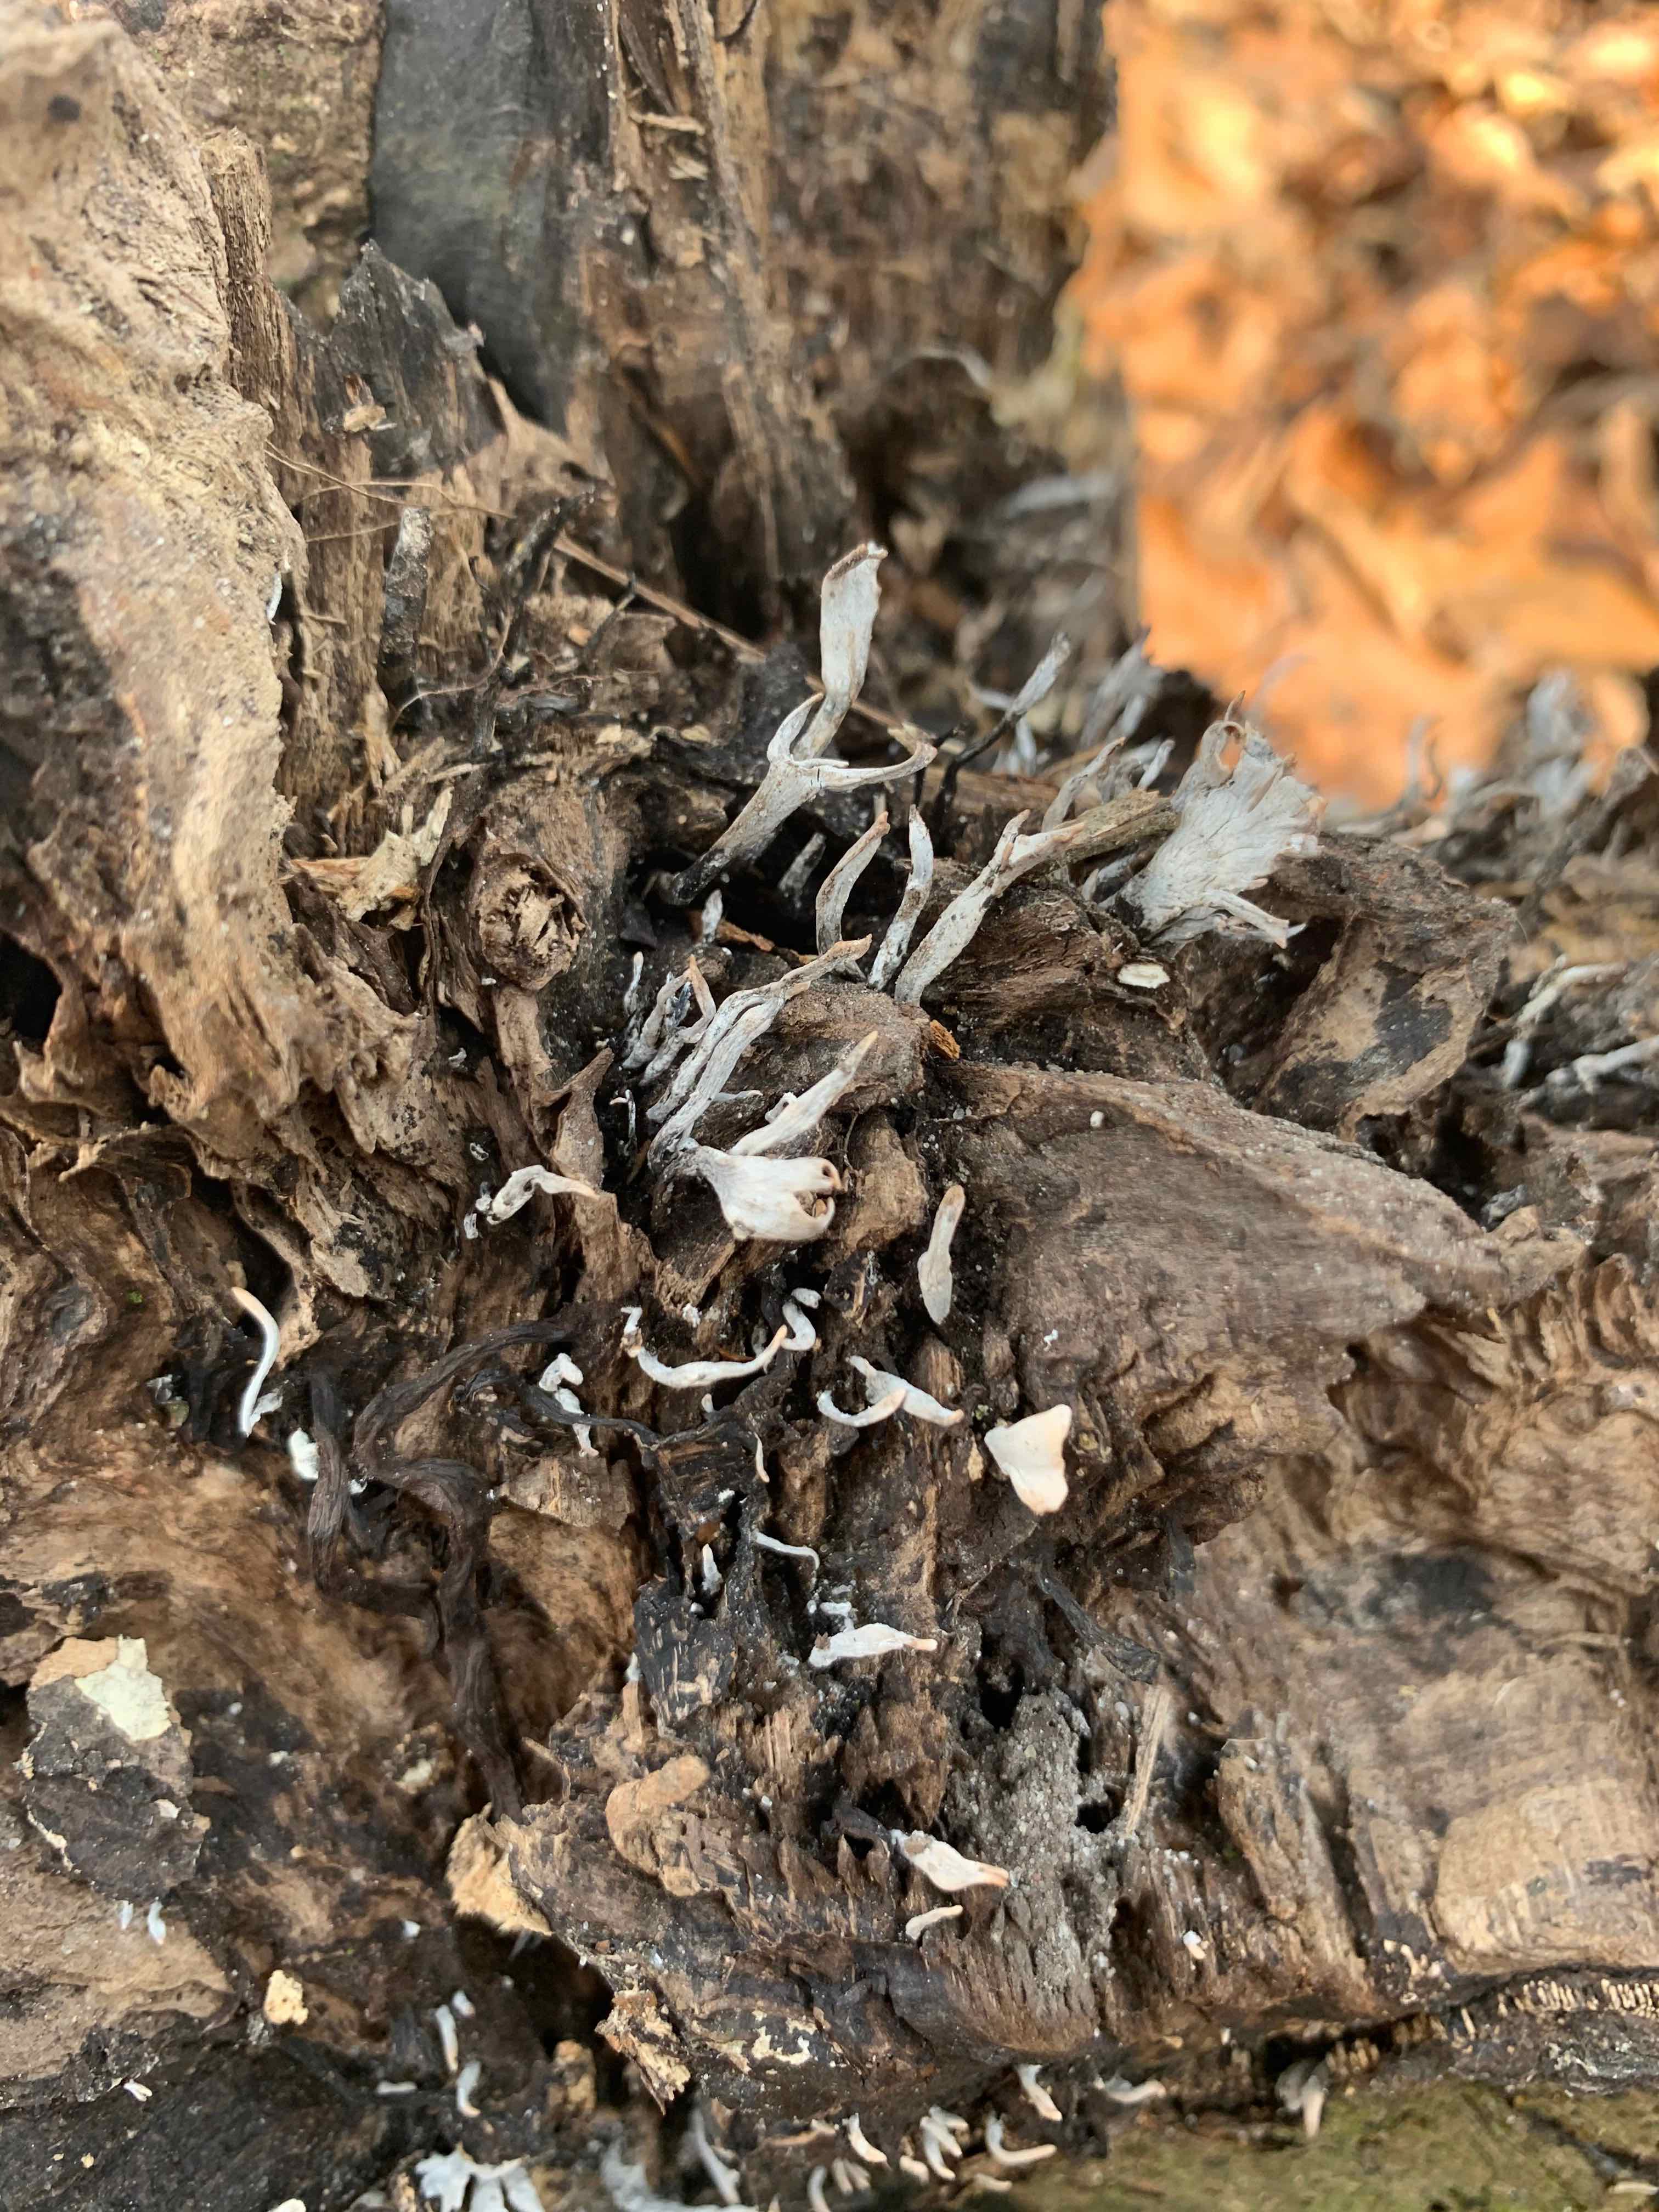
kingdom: Fungi
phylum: Ascomycota
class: Sordariomycetes
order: Xylariales
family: Xylariaceae
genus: Xylaria
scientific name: Xylaria hypoxylon
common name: grenet stødsvamp
